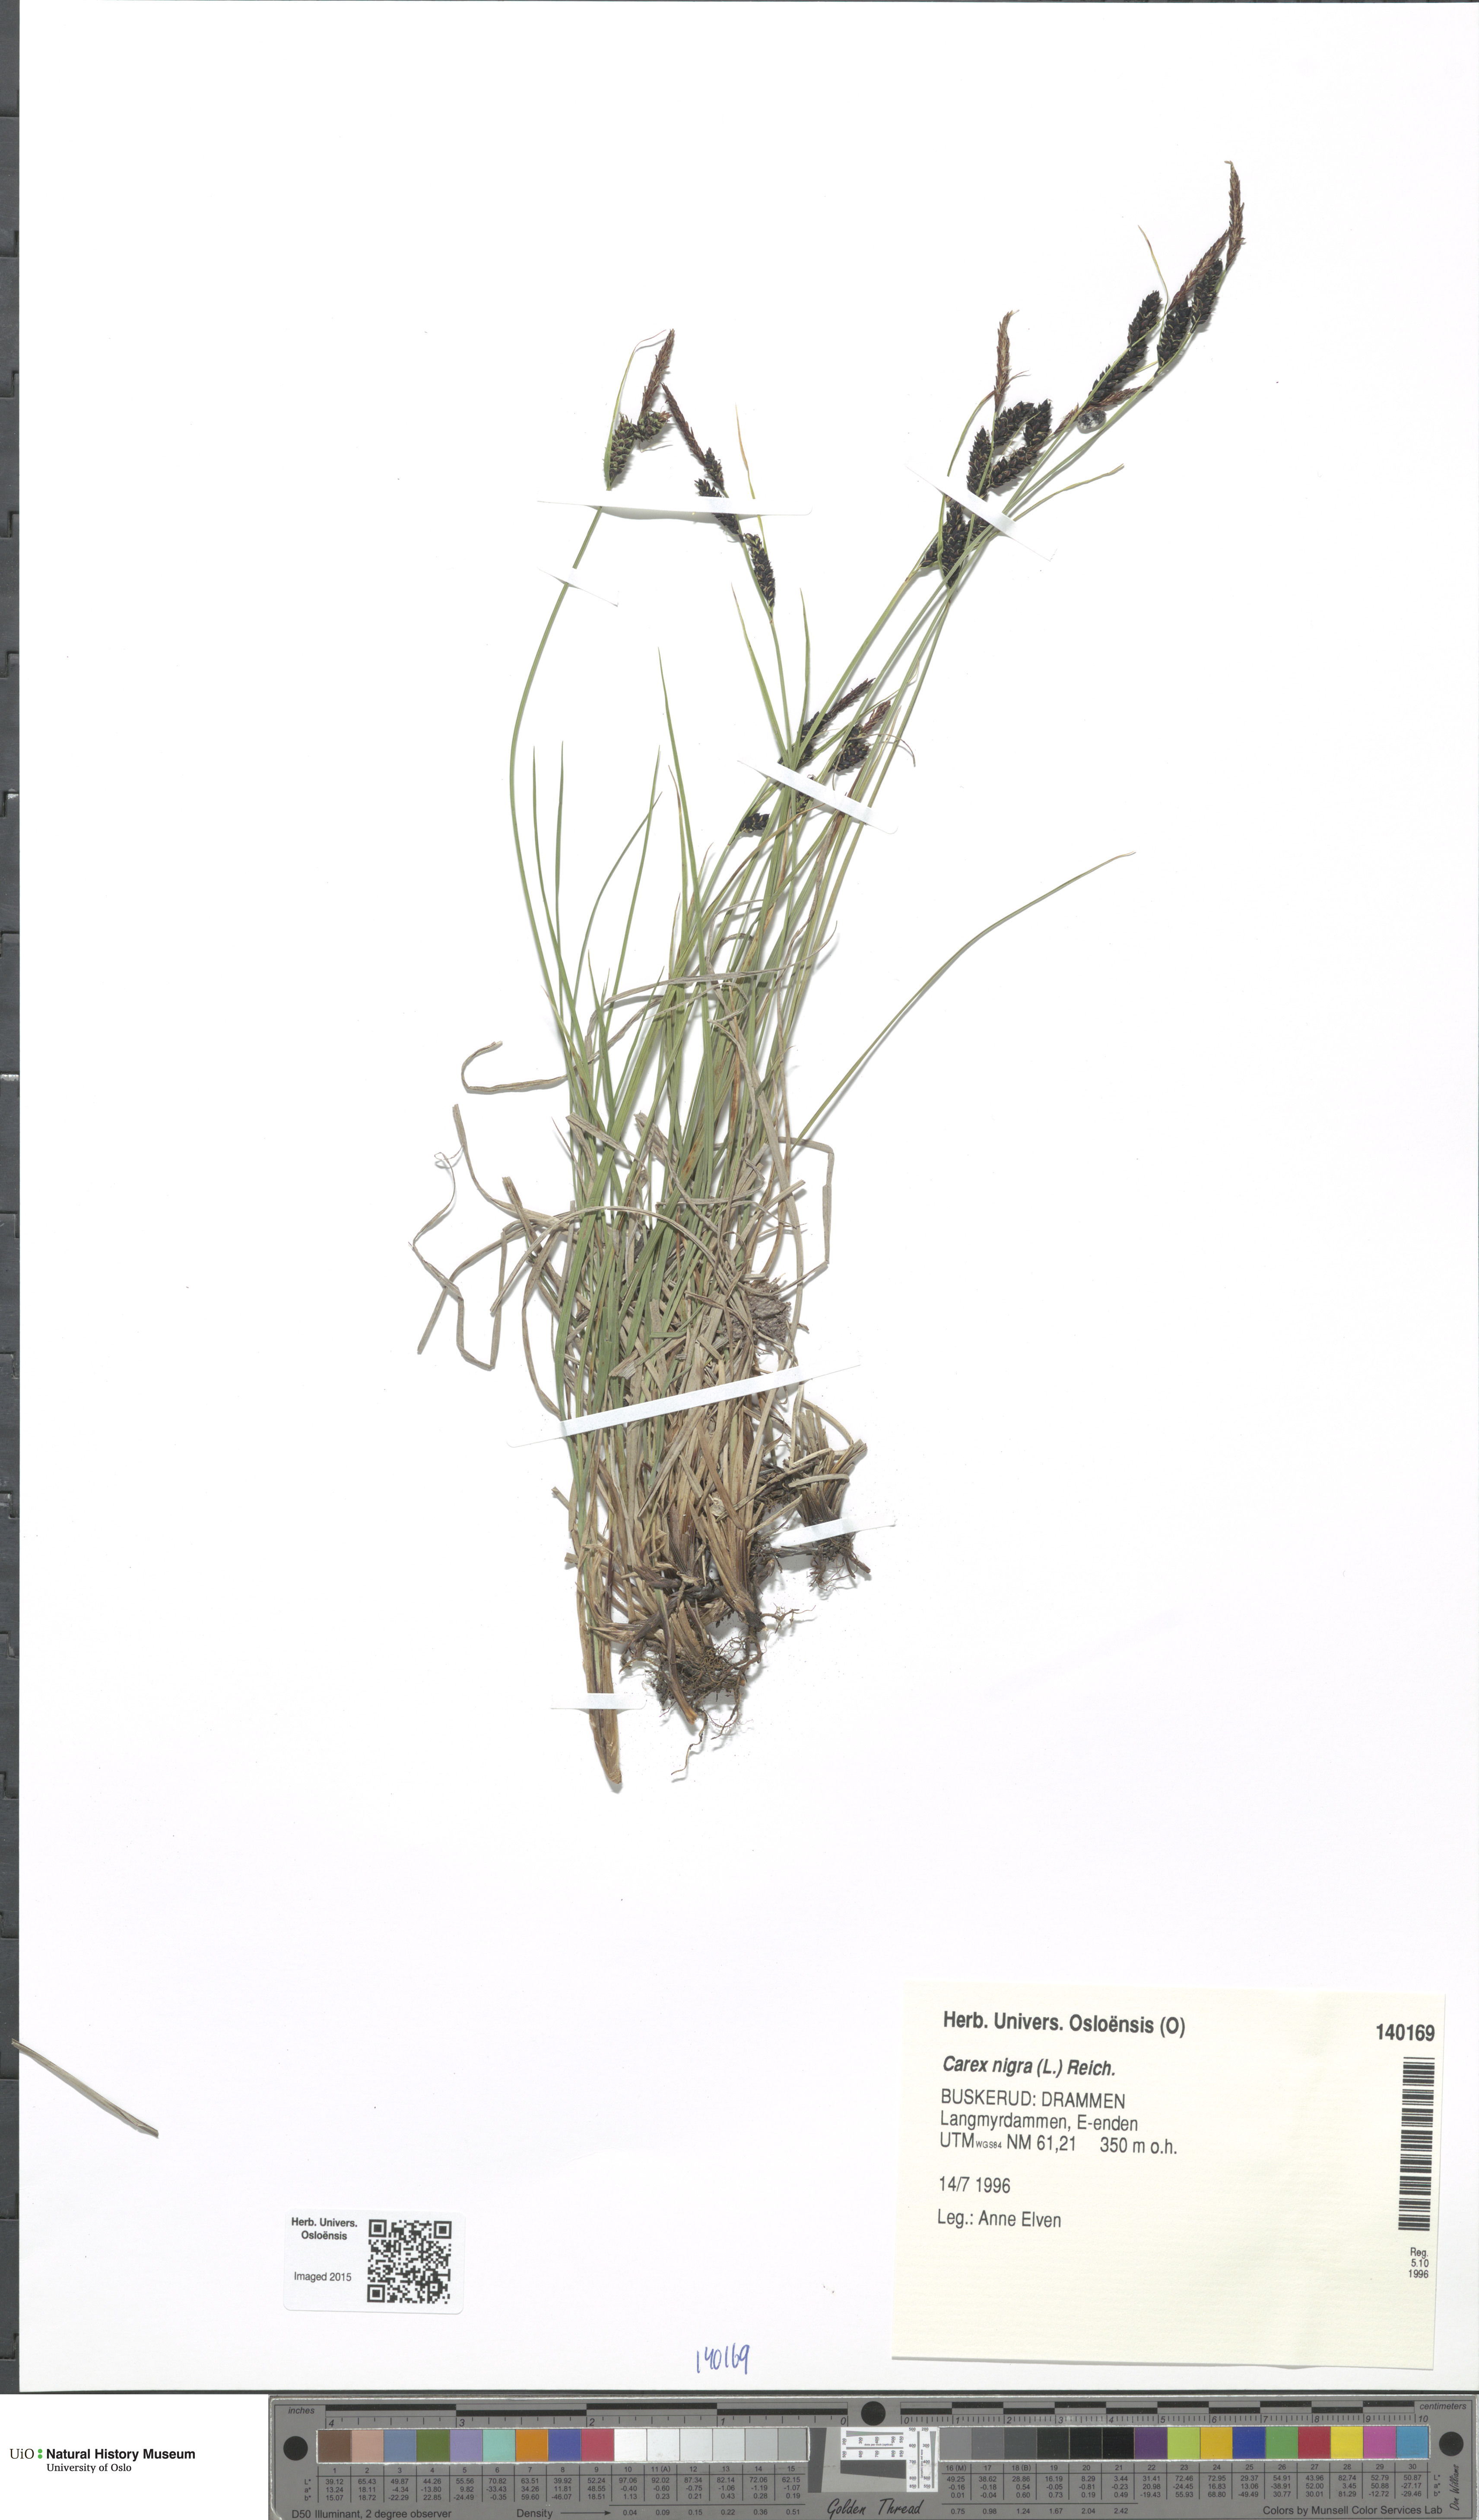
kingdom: Plantae
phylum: Tracheophyta
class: Liliopsida
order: Poales
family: Cyperaceae
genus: Carex
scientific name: Carex nigra
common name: Common sedge
